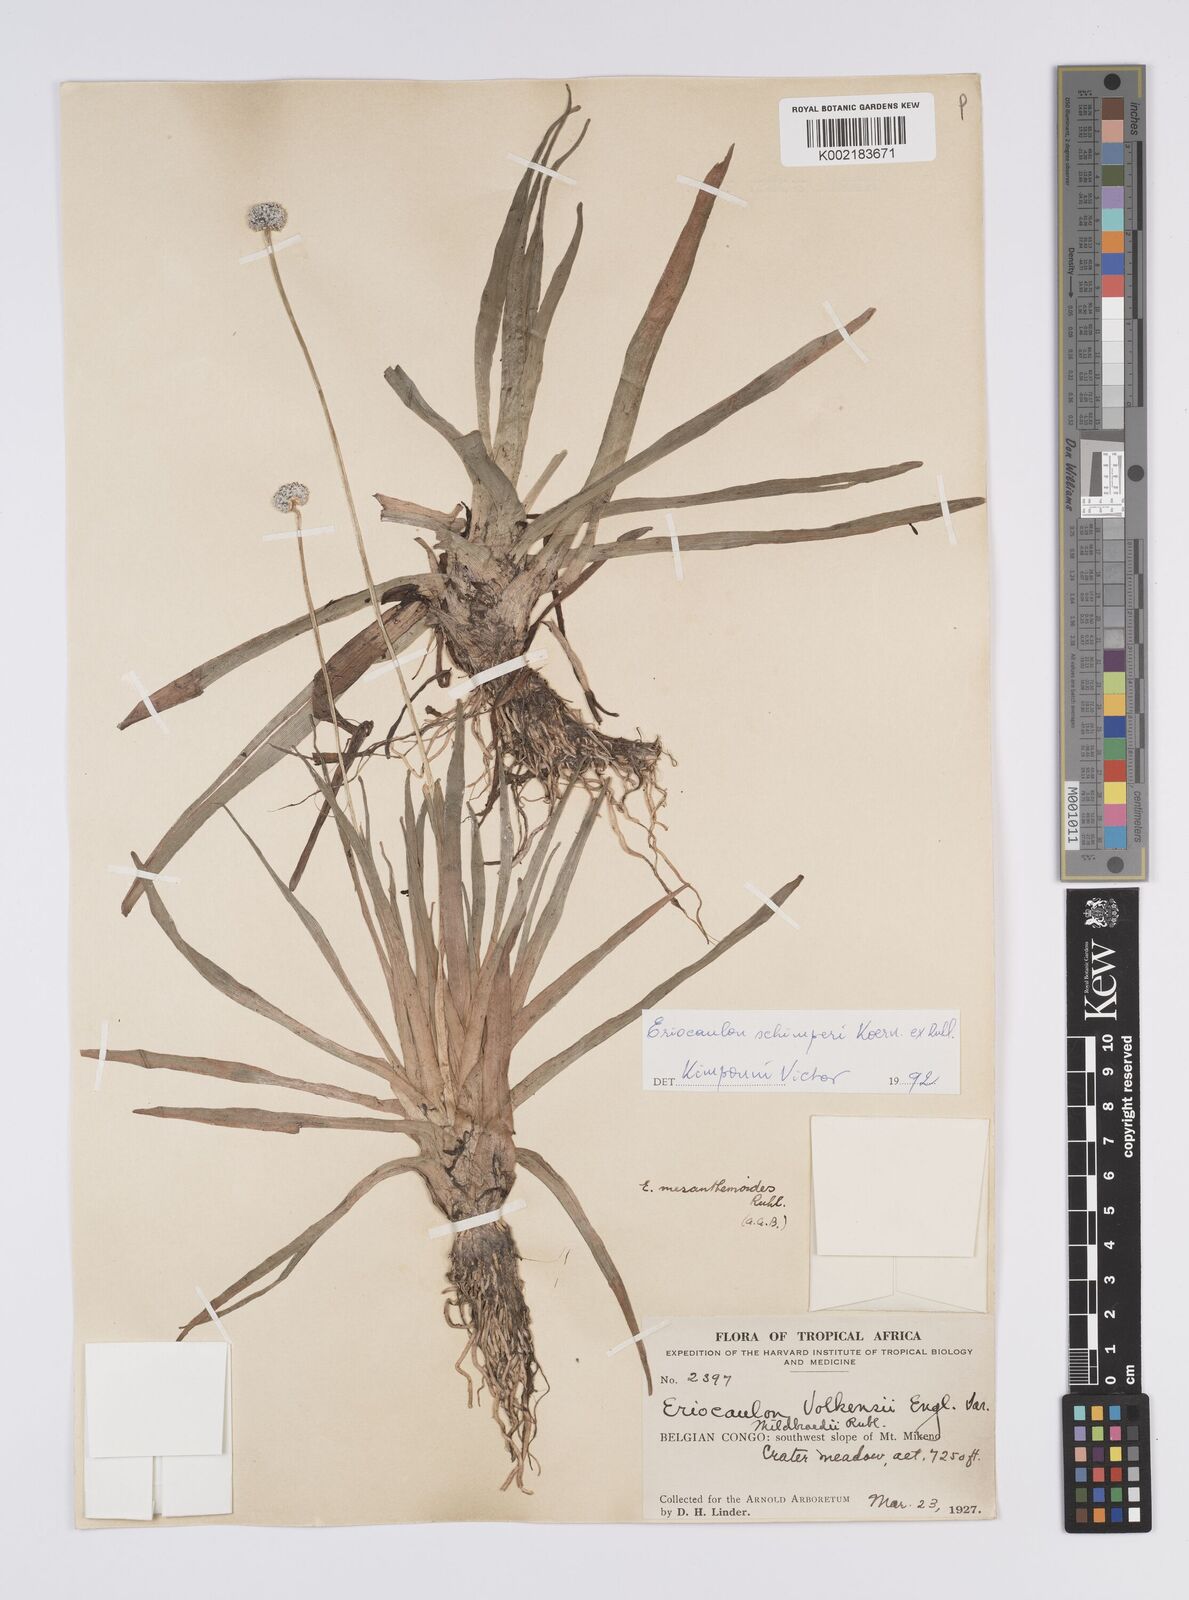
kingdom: Plantae
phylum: Tracheophyta
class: Liliopsida
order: Poales
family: Eriocaulaceae
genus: Eriocaulon
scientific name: Eriocaulon schimperi
